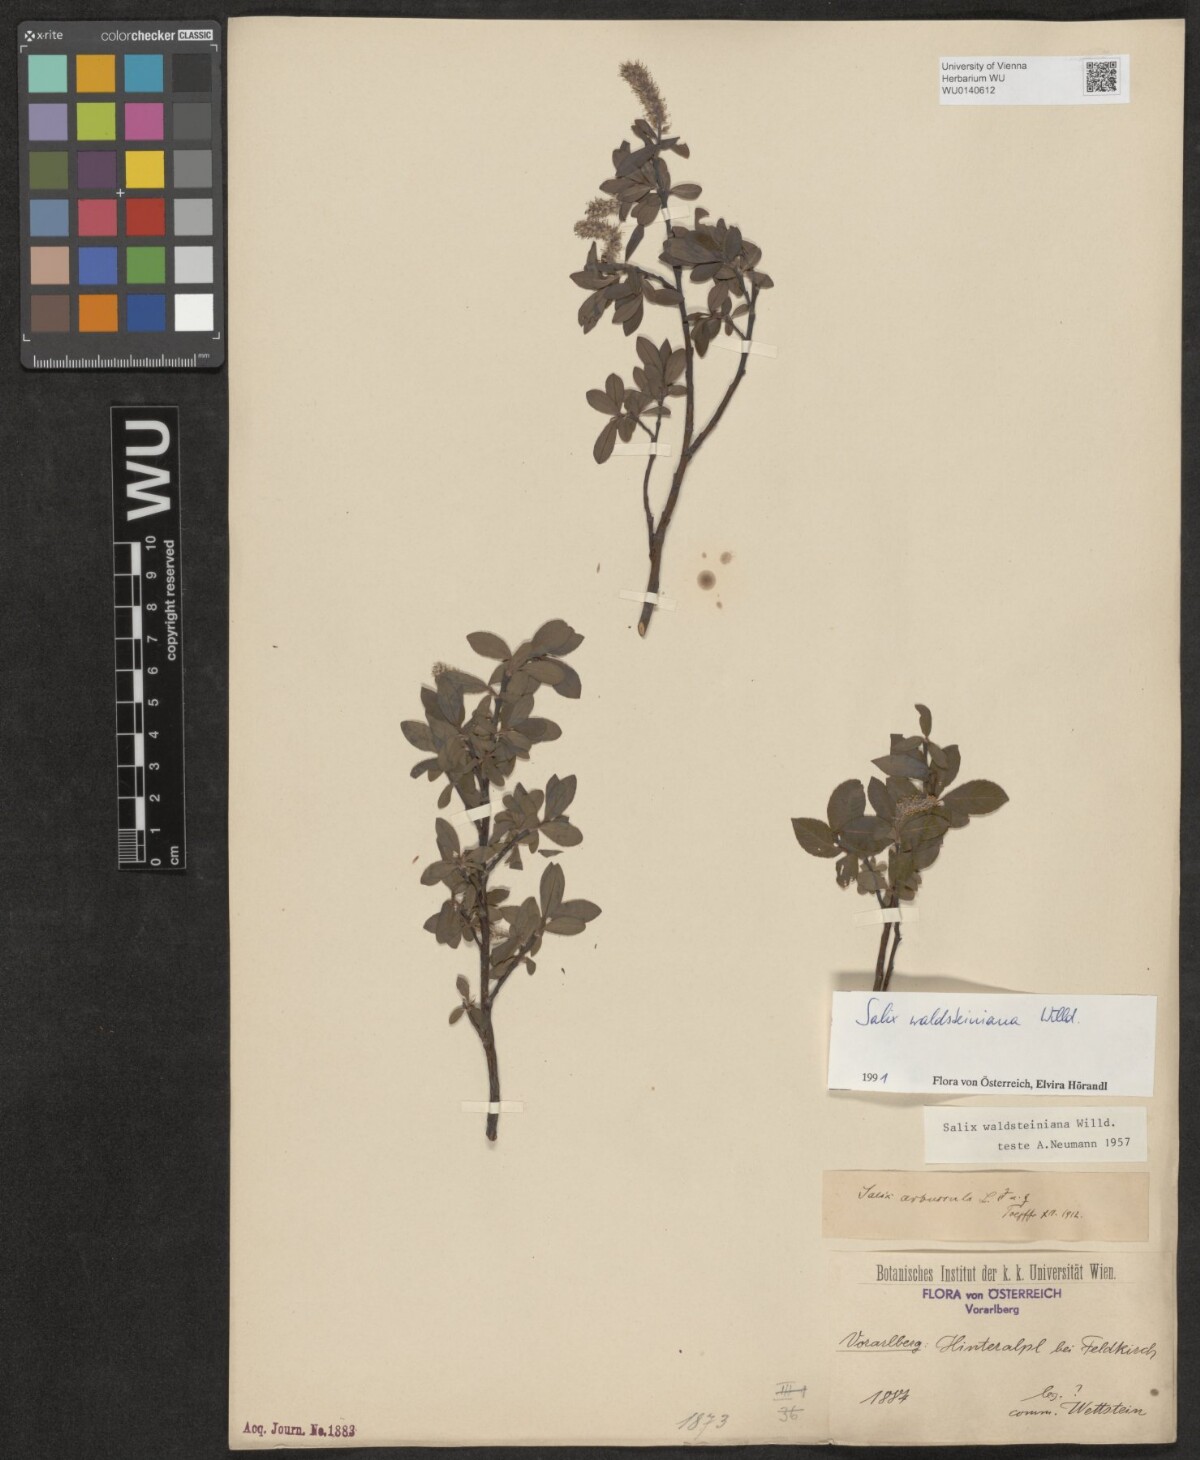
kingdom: Plantae
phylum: Tracheophyta
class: Magnoliopsida
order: Malpighiales
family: Salicaceae
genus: Salix
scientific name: Salix waldsteiniana
